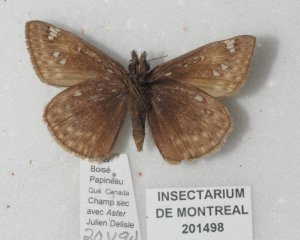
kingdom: Animalia
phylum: Arthropoda
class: Insecta
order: Lepidoptera
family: Hesperiidae
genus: Gesta
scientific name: Gesta
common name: Juvenal's Duskywing
